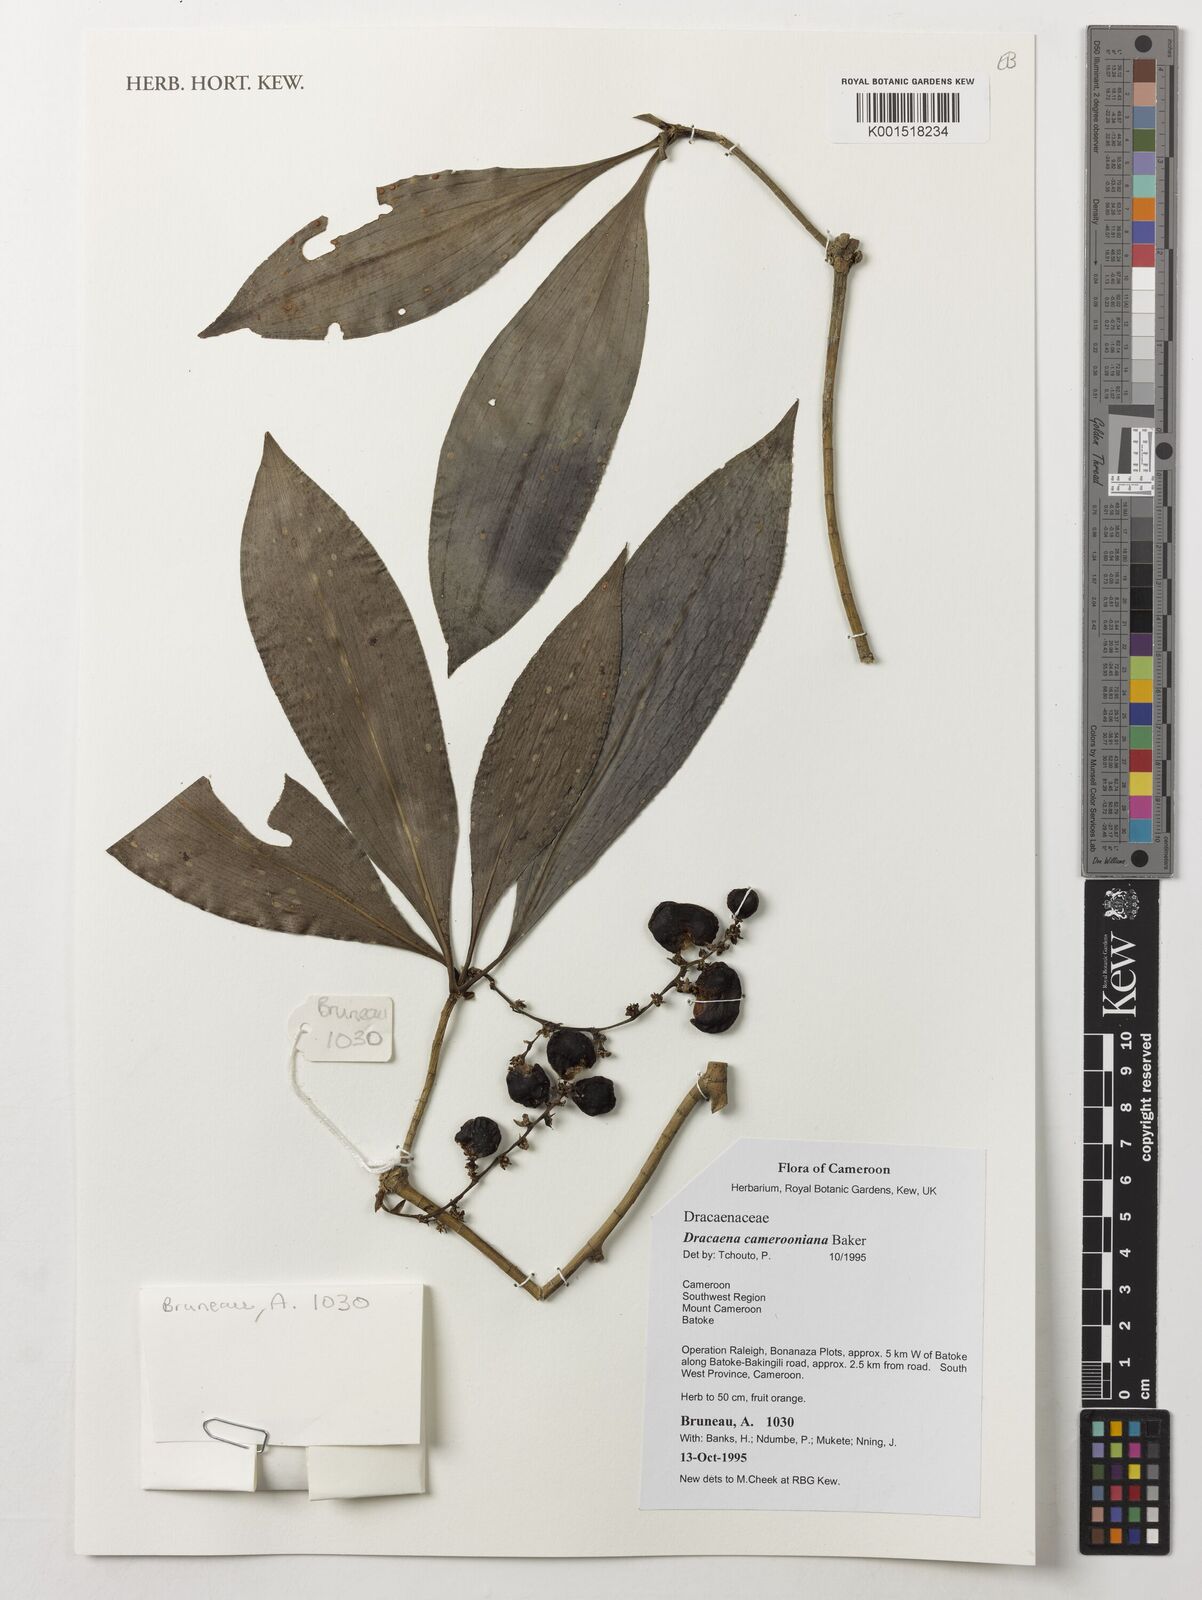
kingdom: Plantae
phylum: Tracheophyta
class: Liliopsida
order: Asparagales
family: Asparagaceae
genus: Dracaena
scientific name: Dracaena camerooniana
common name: Dragon tree
